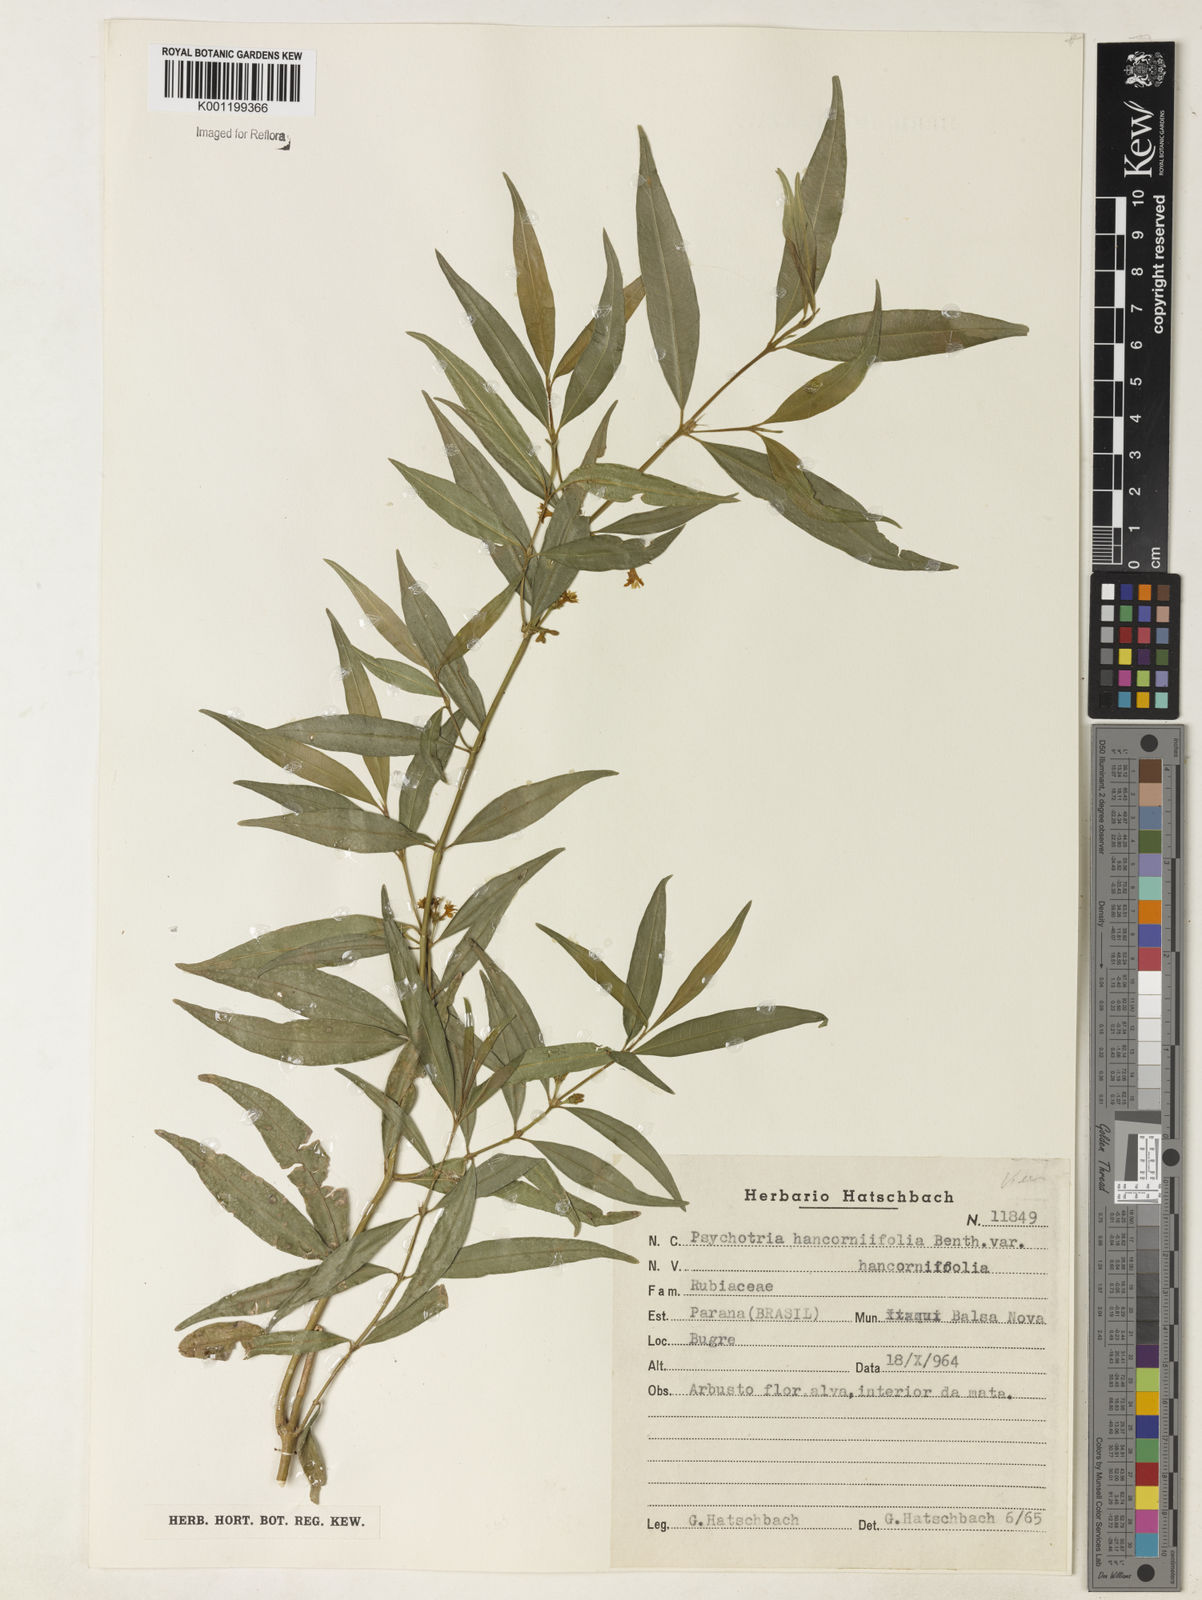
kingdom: Plantae
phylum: Tracheophyta
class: Magnoliopsida
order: Gentianales
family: Rubiaceae
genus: Palicourea
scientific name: Palicourea sessilis
